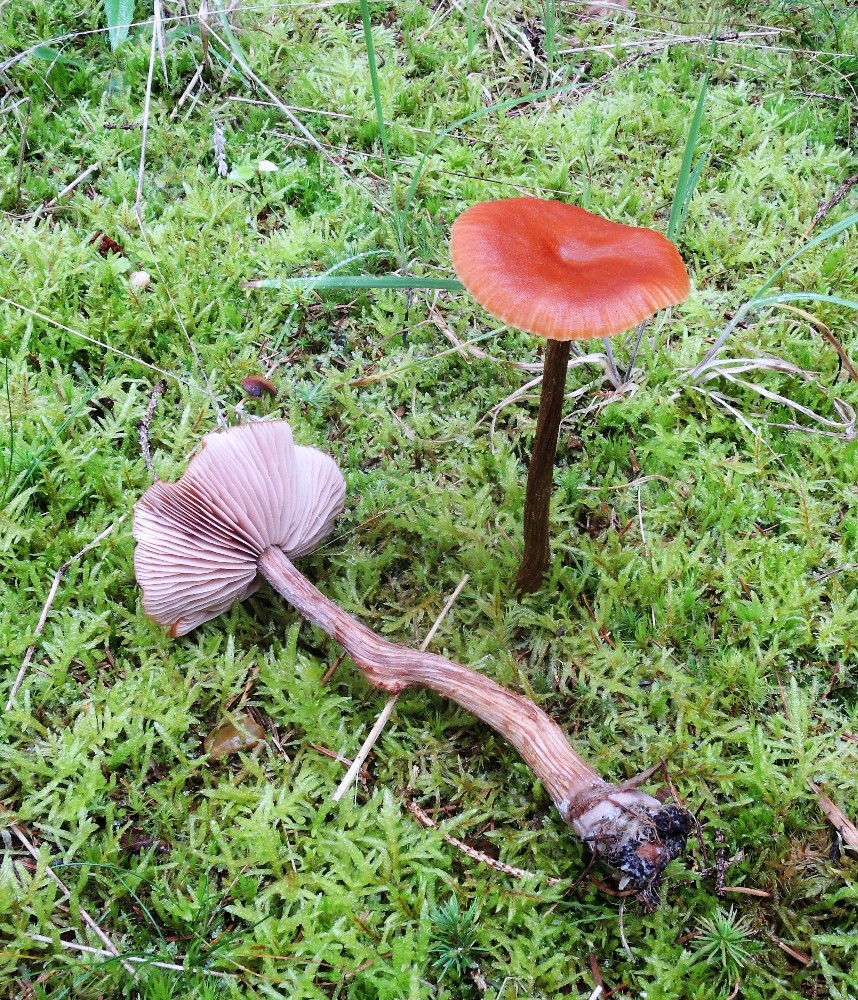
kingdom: Fungi
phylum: Basidiomycota
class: Agaricomycetes
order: Agaricales
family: Hydnangiaceae
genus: Laccaria
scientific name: Laccaria proxima
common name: stor ametysthat
